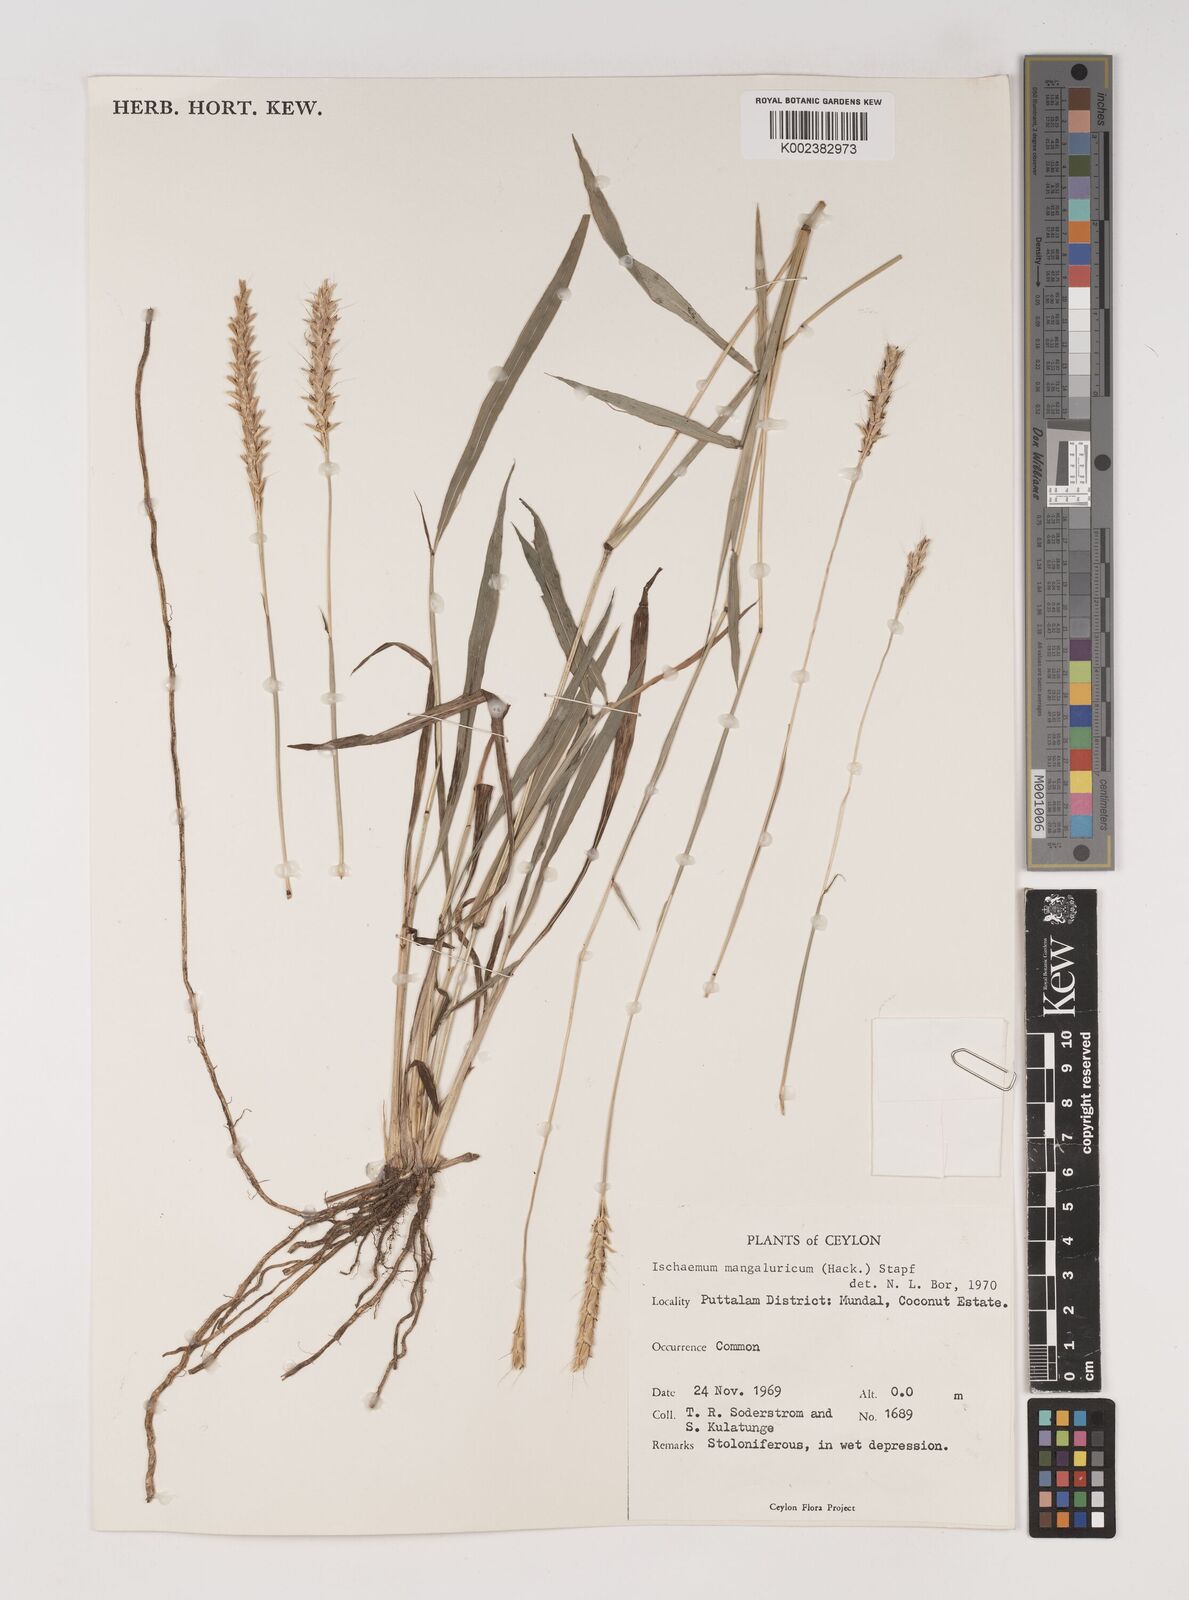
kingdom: Plantae
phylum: Tracheophyta
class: Liliopsida
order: Poales
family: Poaceae
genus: Ischaemum
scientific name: Ischaemum barbatum
